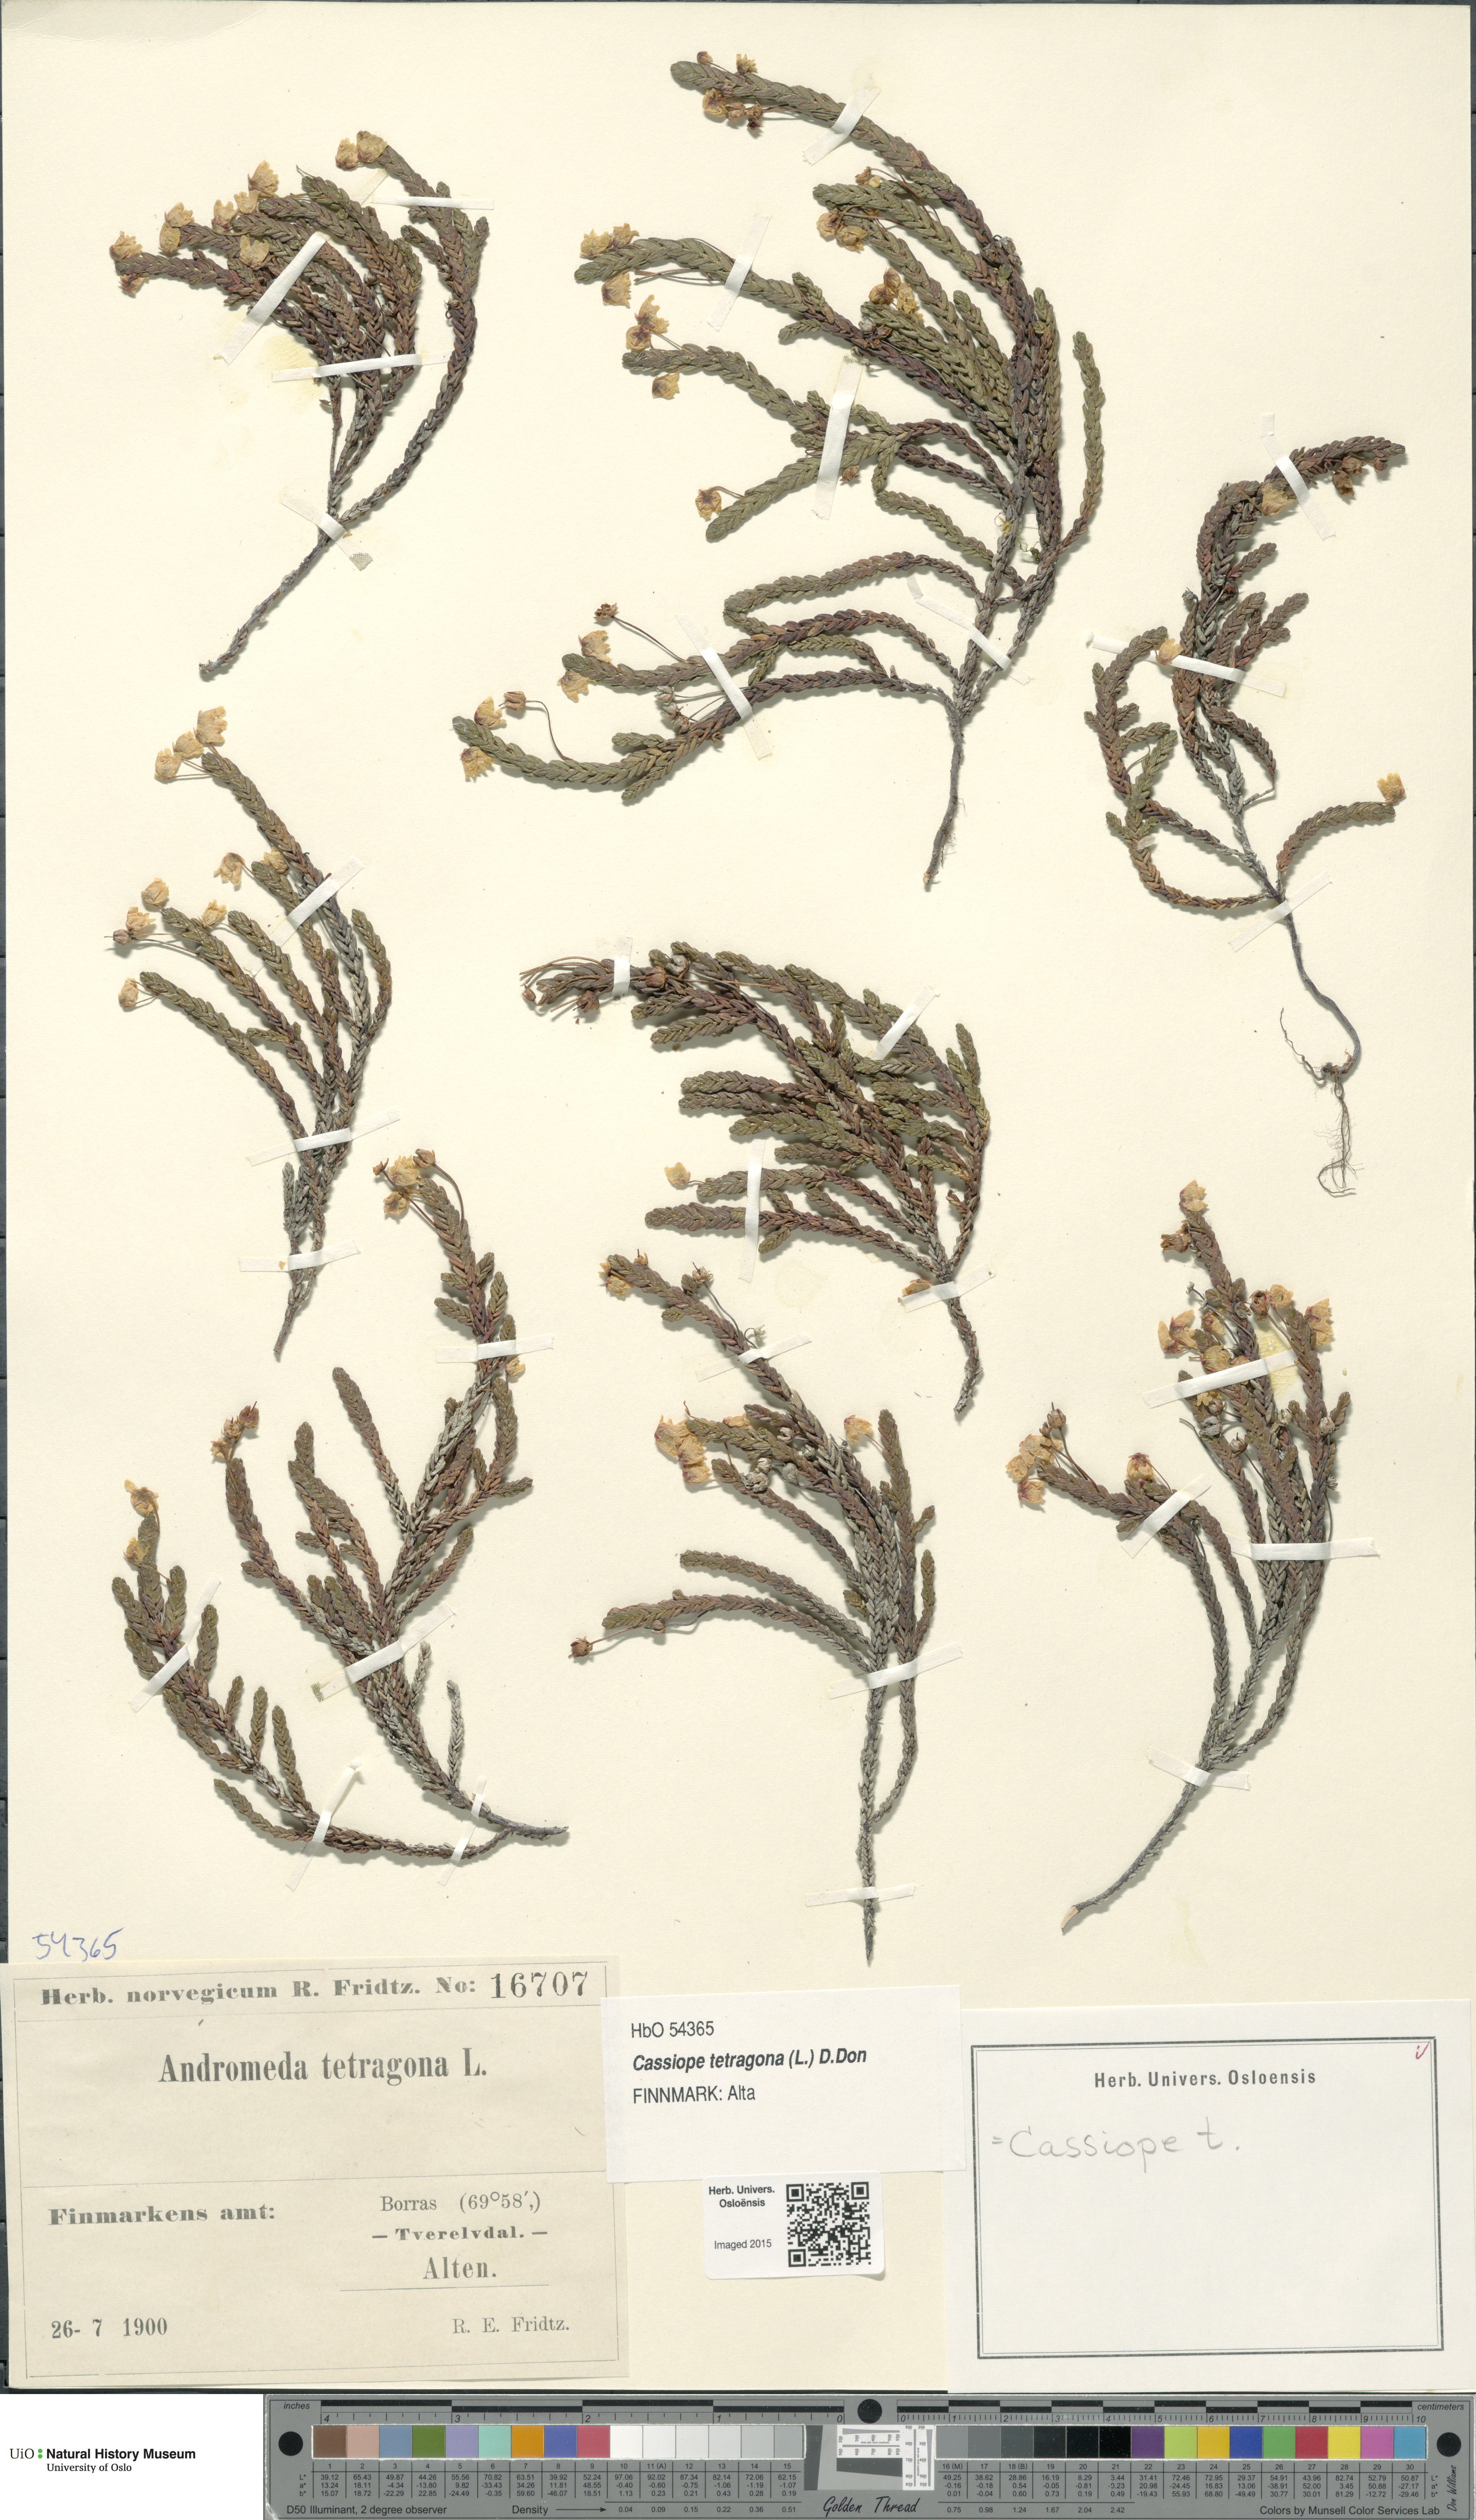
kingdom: Plantae
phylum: Tracheophyta
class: Magnoliopsida
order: Ericales
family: Ericaceae
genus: Cassiope
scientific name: Cassiope tetragona
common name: Arctic bell heather
